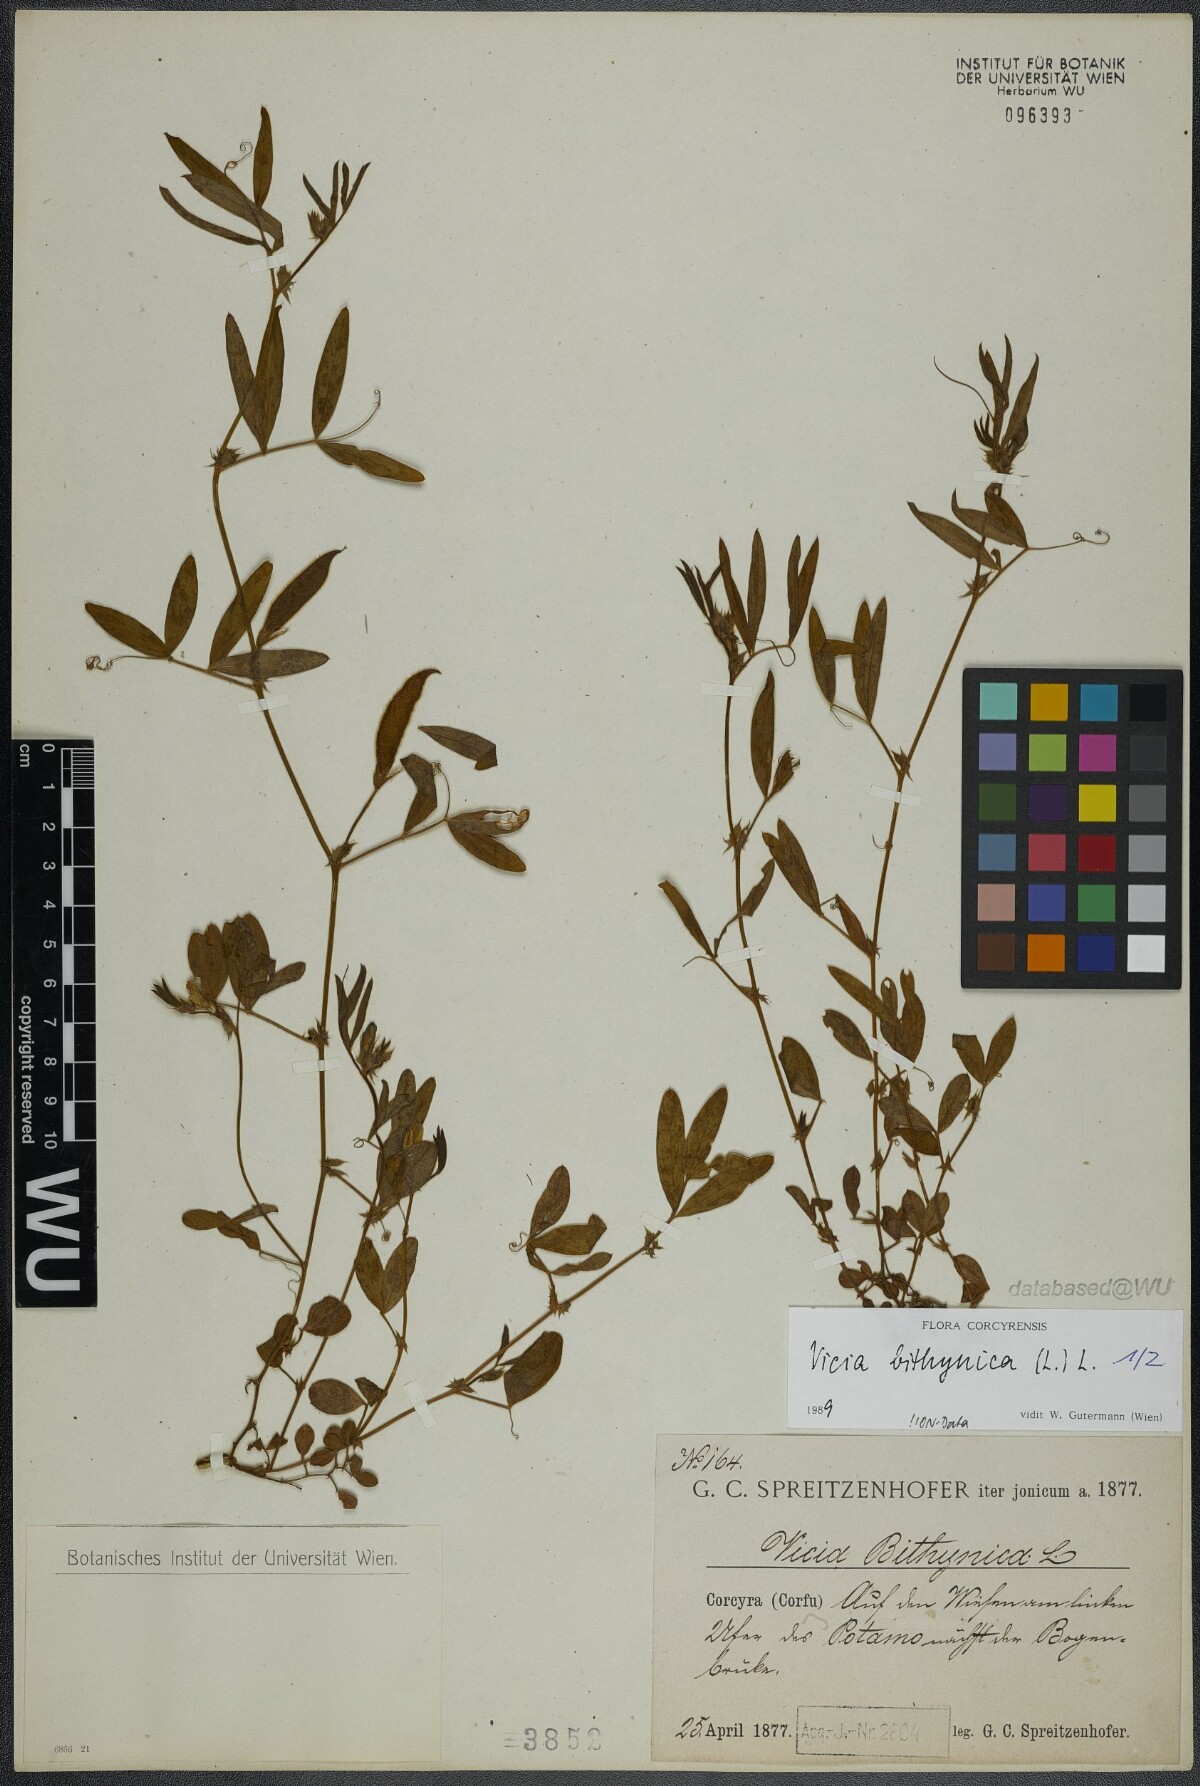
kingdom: Plantae
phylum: Tracheophyta
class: Magnoliopsida
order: Fabales
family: Fabaceae
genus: Vicia
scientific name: Vicia bithynica
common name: Bithynian vetch
